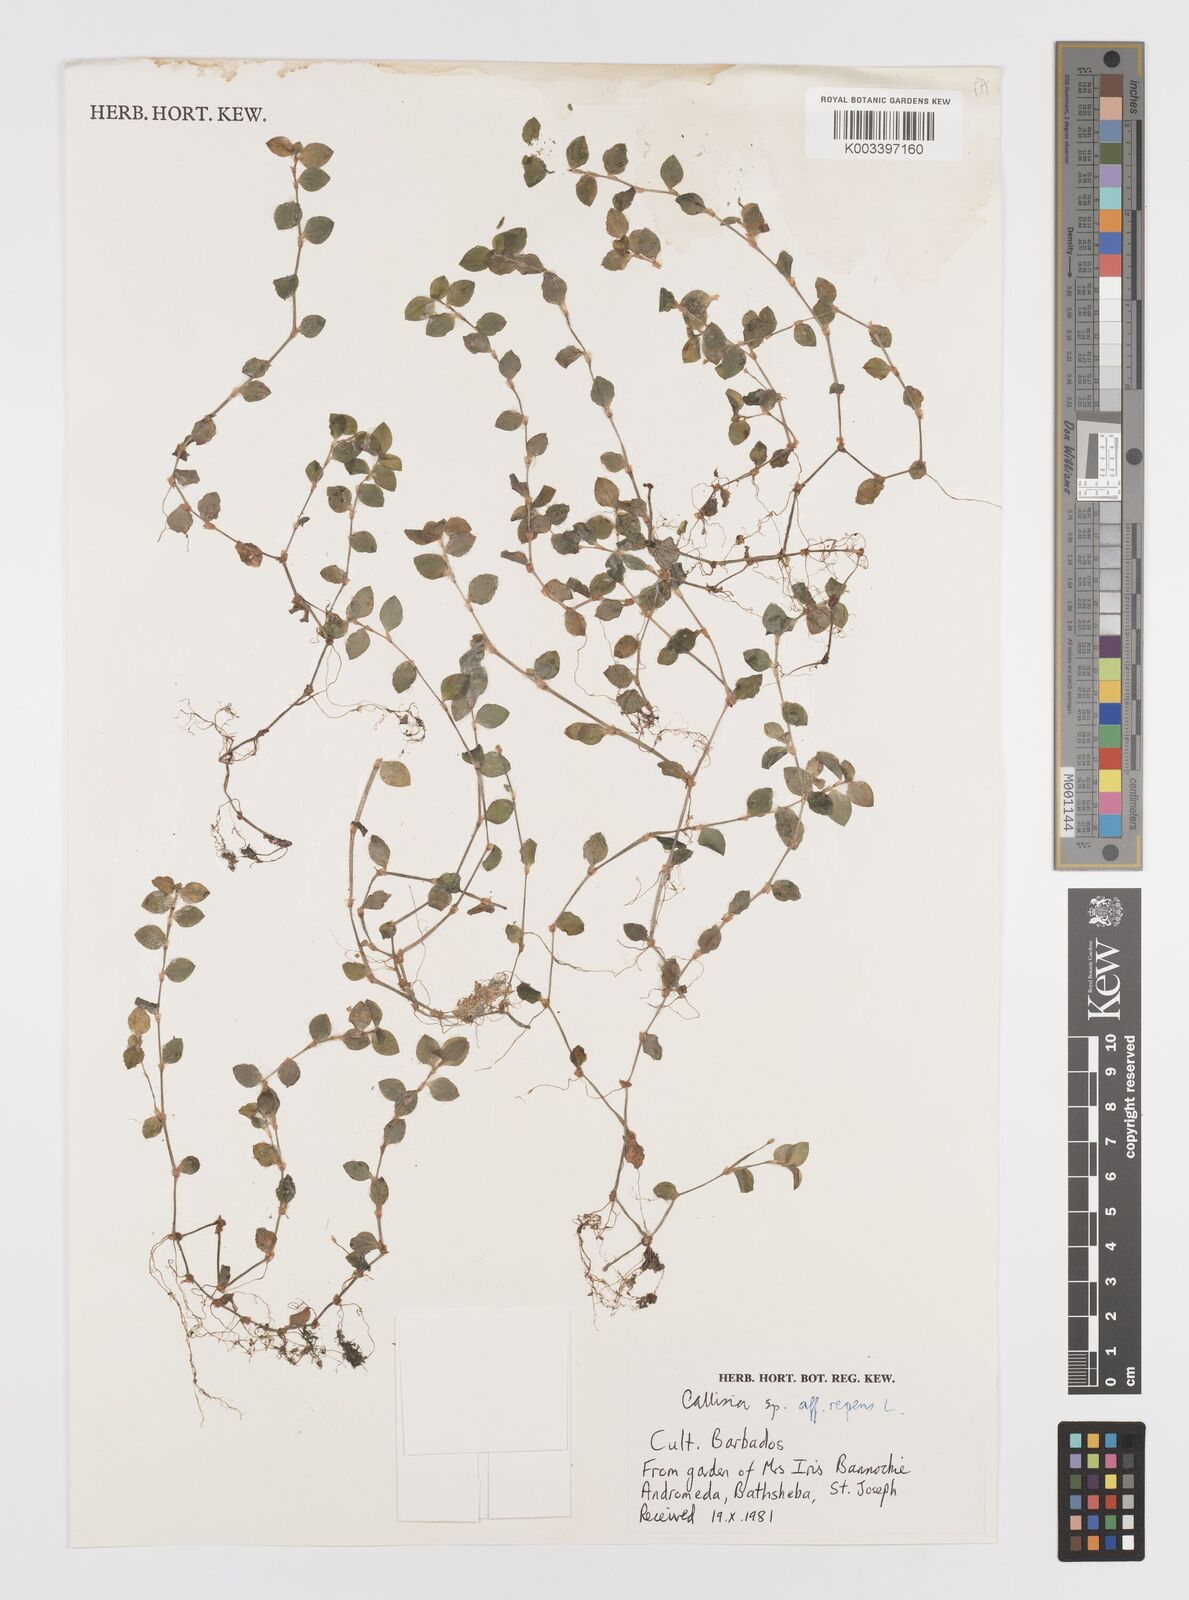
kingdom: Plantae
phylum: Tracheophyta
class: Liliopsida
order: Commelinales
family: Commelinaceae
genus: Callisia
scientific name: Callisia
